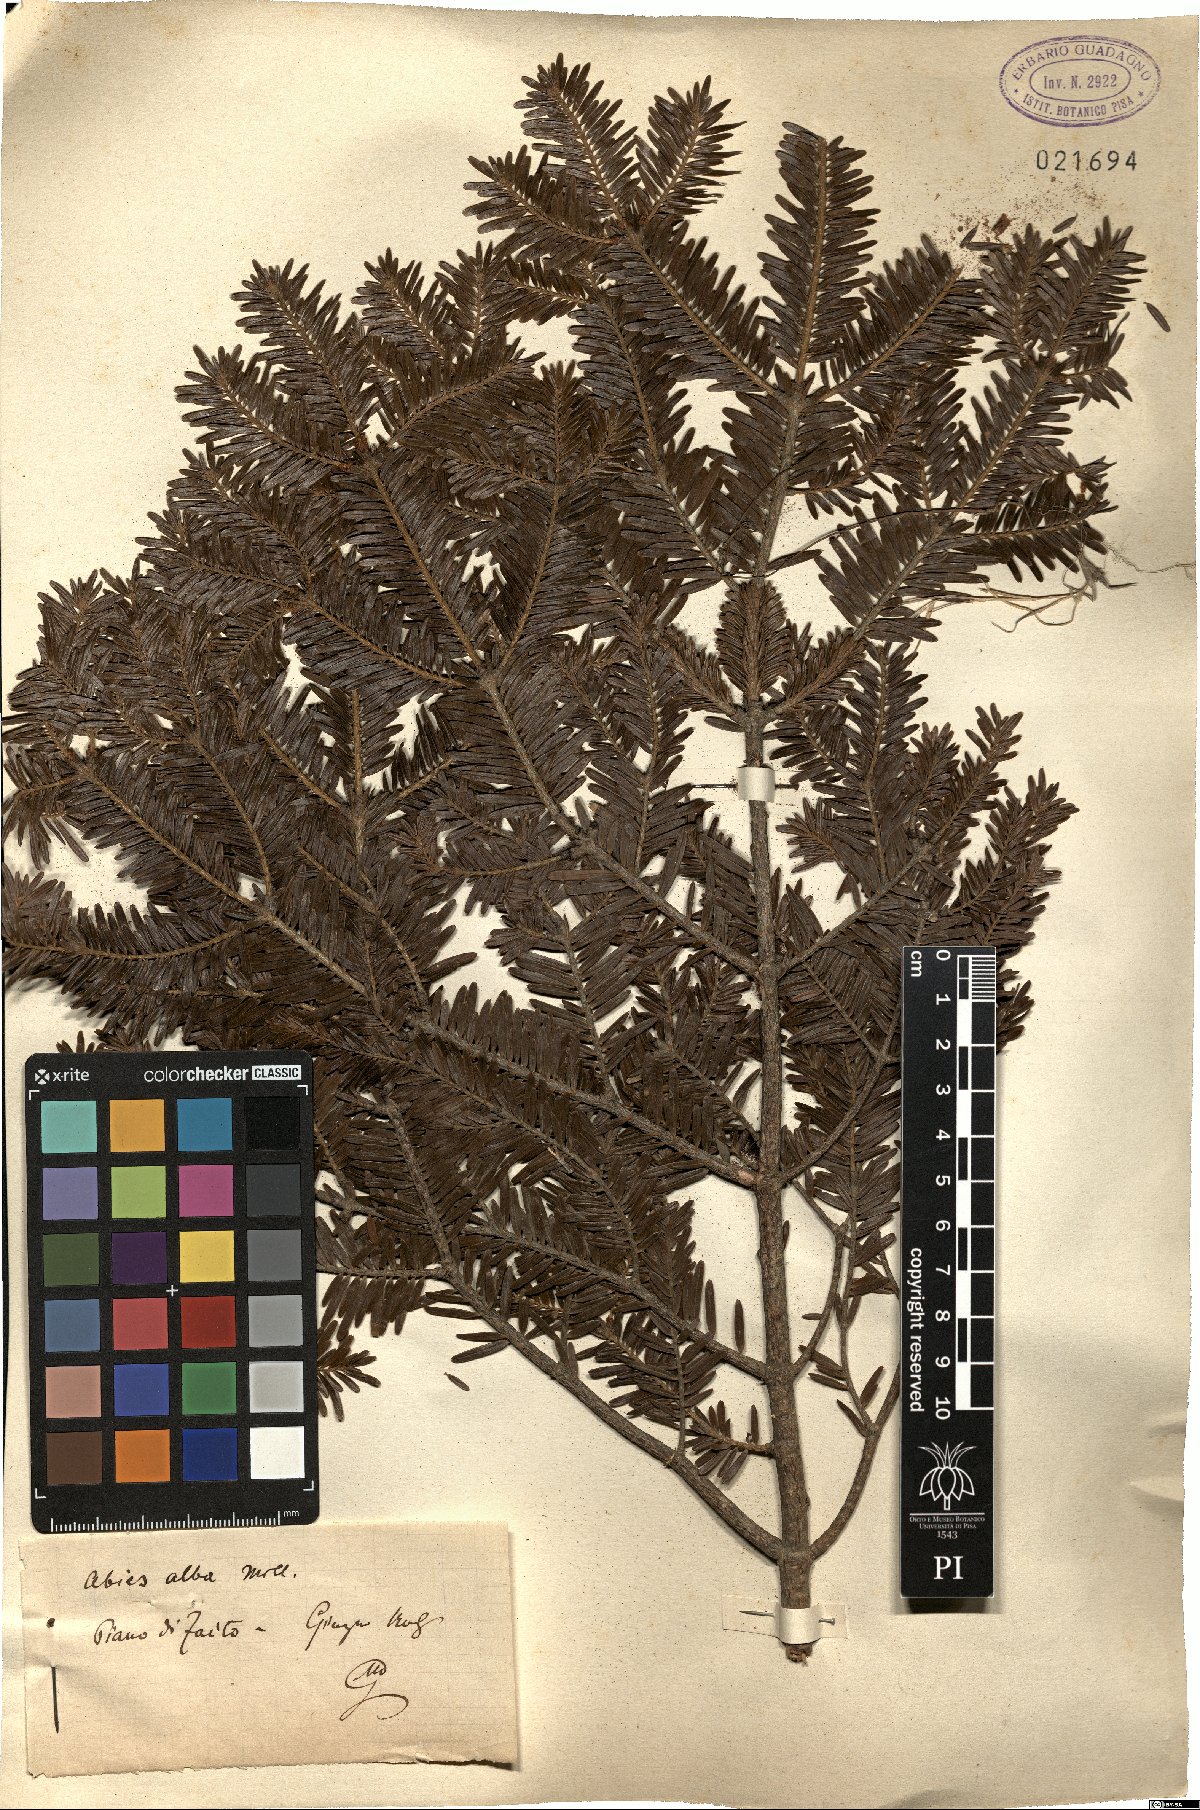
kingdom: Plantae
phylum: Tracheophyta
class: Pinopsida
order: Pinales
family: Pinaceae
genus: Abies
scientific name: Abies alba
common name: Silver fir
